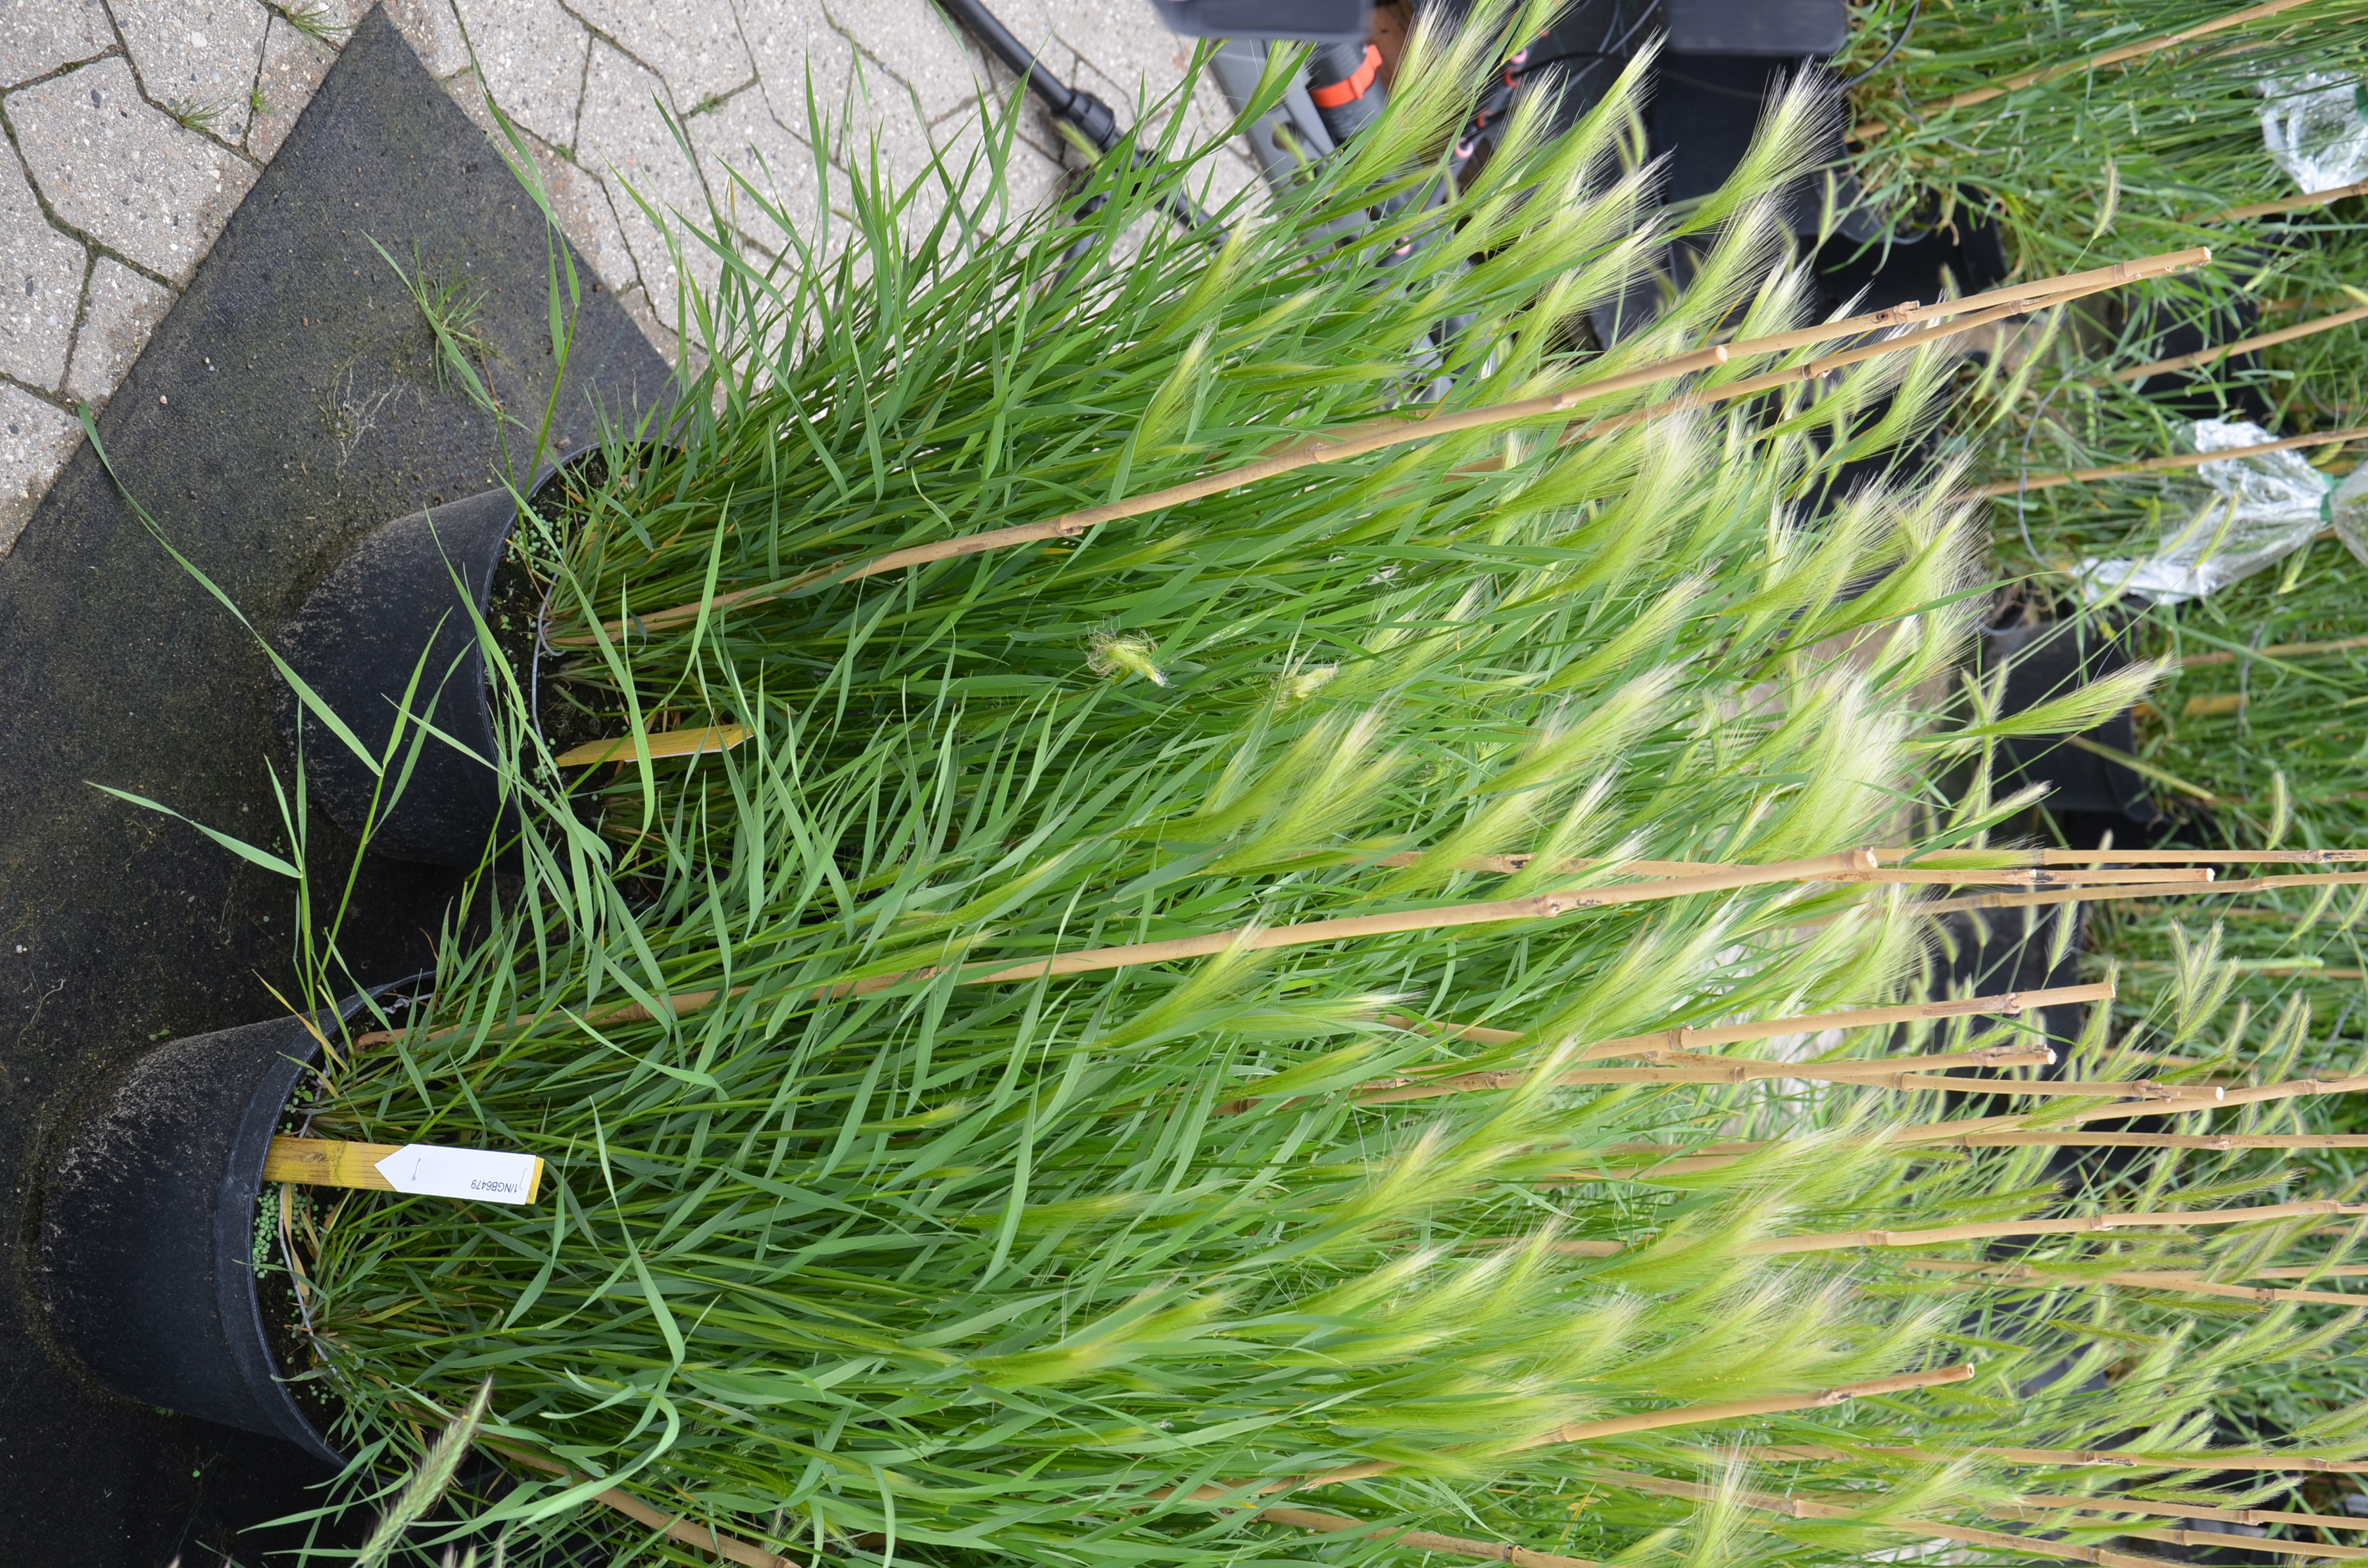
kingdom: Plantae
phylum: Tracheophyta
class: Liliopsida
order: Poales
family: Poaceae
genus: Hordeum
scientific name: Hordeum jubatum
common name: Foxtail barley
